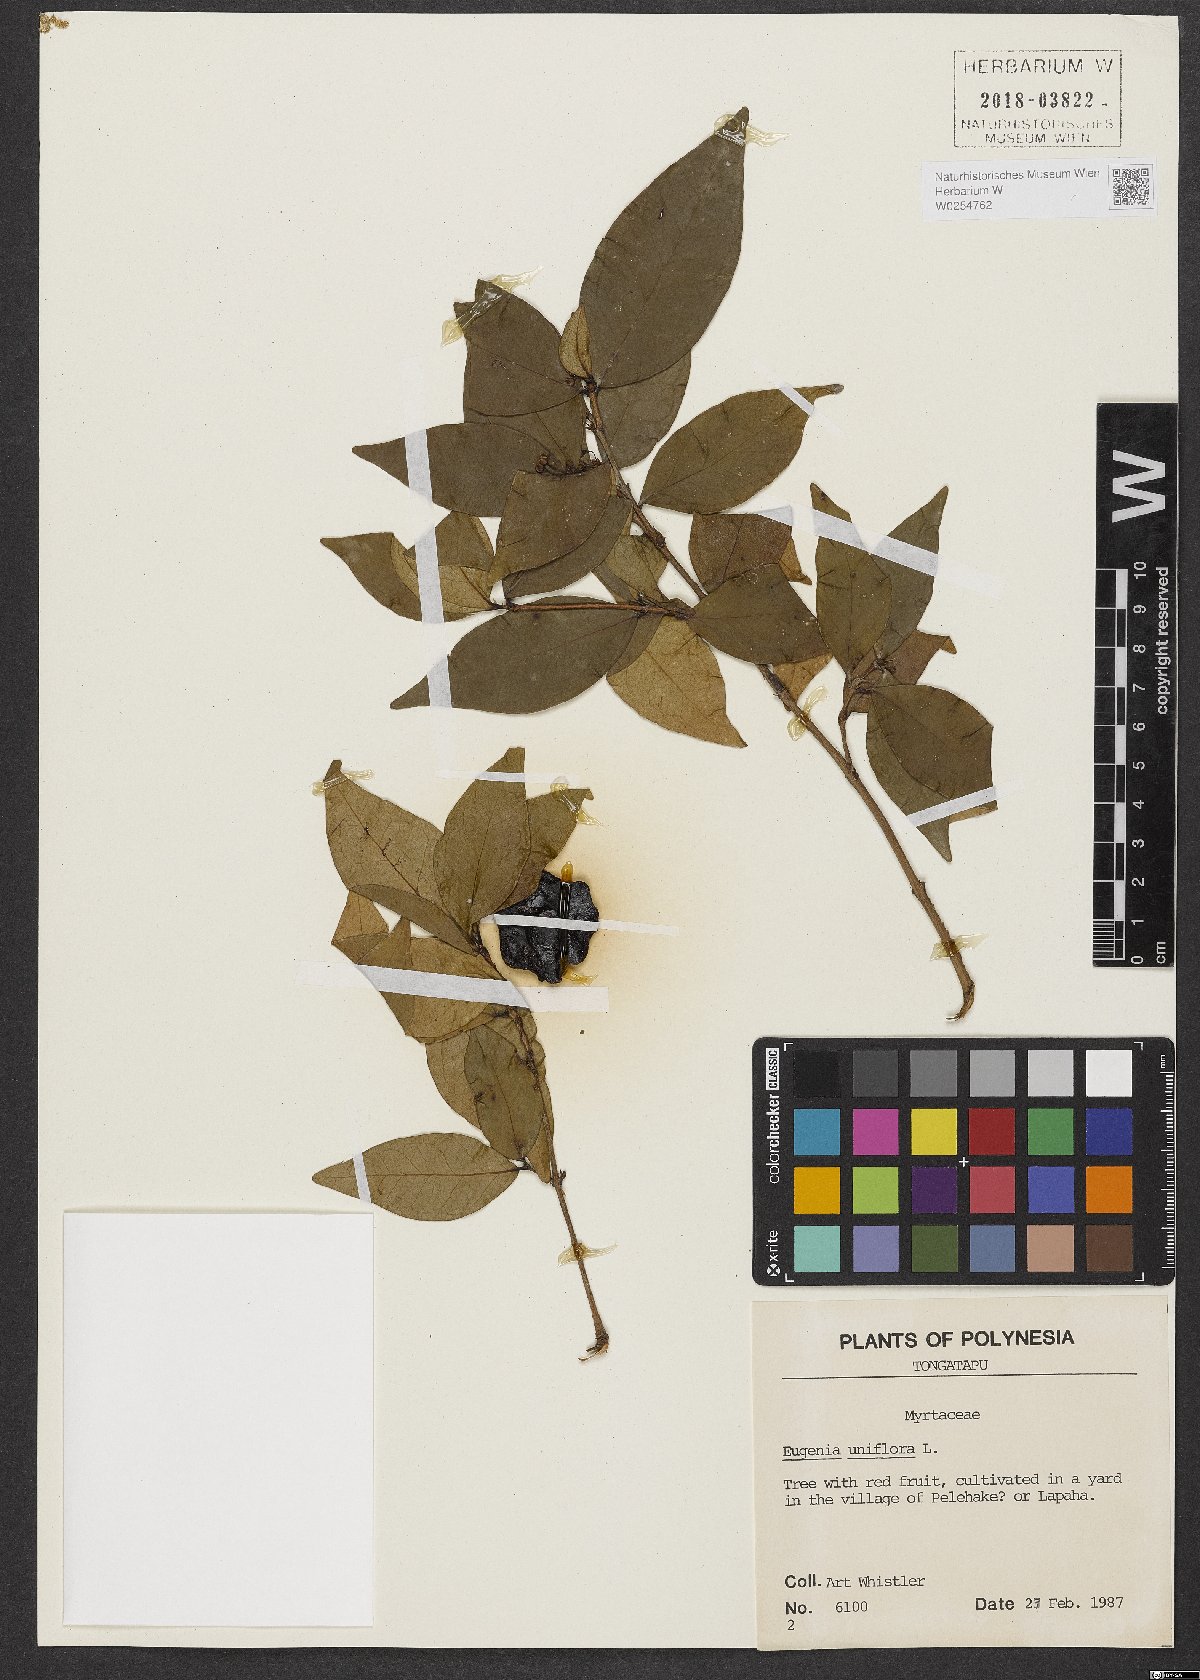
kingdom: Plantae
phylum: Tracheophyta
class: Magnoliopsida
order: Myrtales
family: Myrtaceae
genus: Eugenia
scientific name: Eugenia uniflora
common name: Surinam cherry
